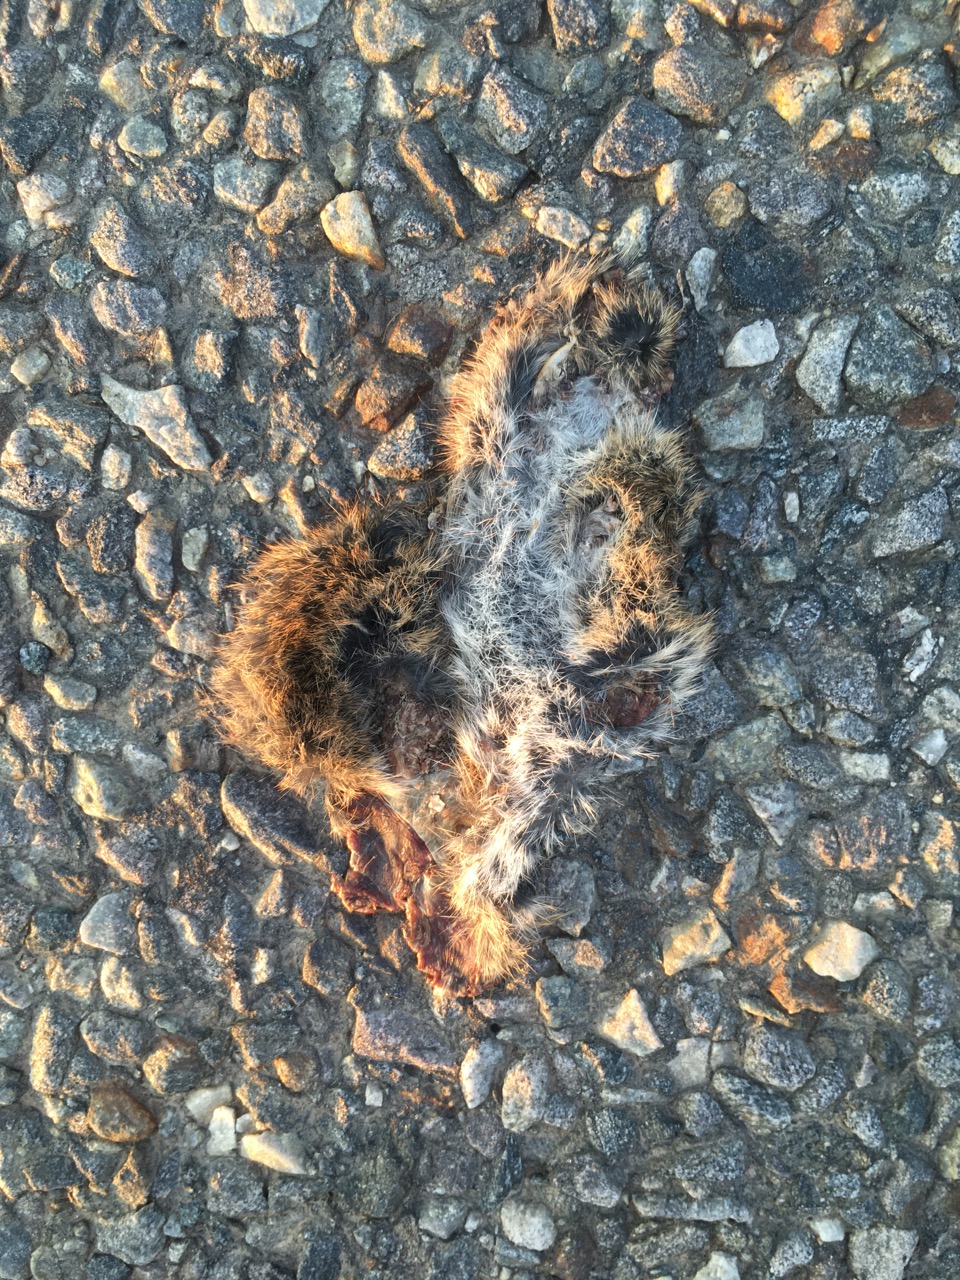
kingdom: Animalia
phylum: Chordata
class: Mammalia
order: Rodentia
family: Cricetidae
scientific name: Cricetidae
